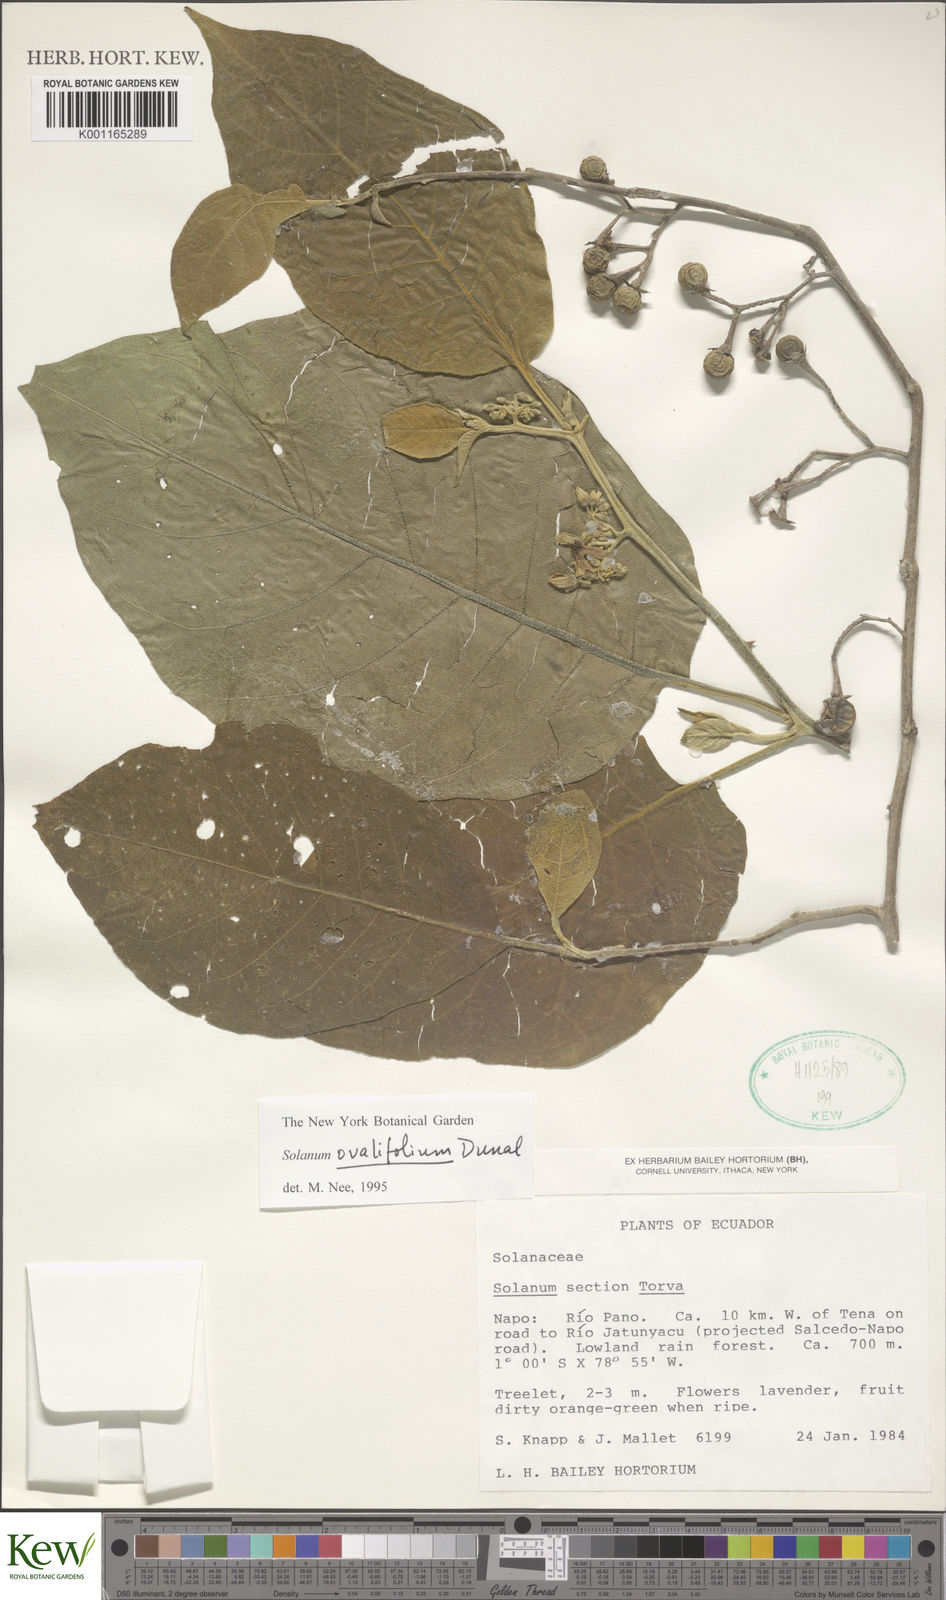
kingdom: Plantae
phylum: Tracheophyta
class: Magnoliopsida
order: Solanales
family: Solanaceae
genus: Solanum
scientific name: Solanum ovalifolium
